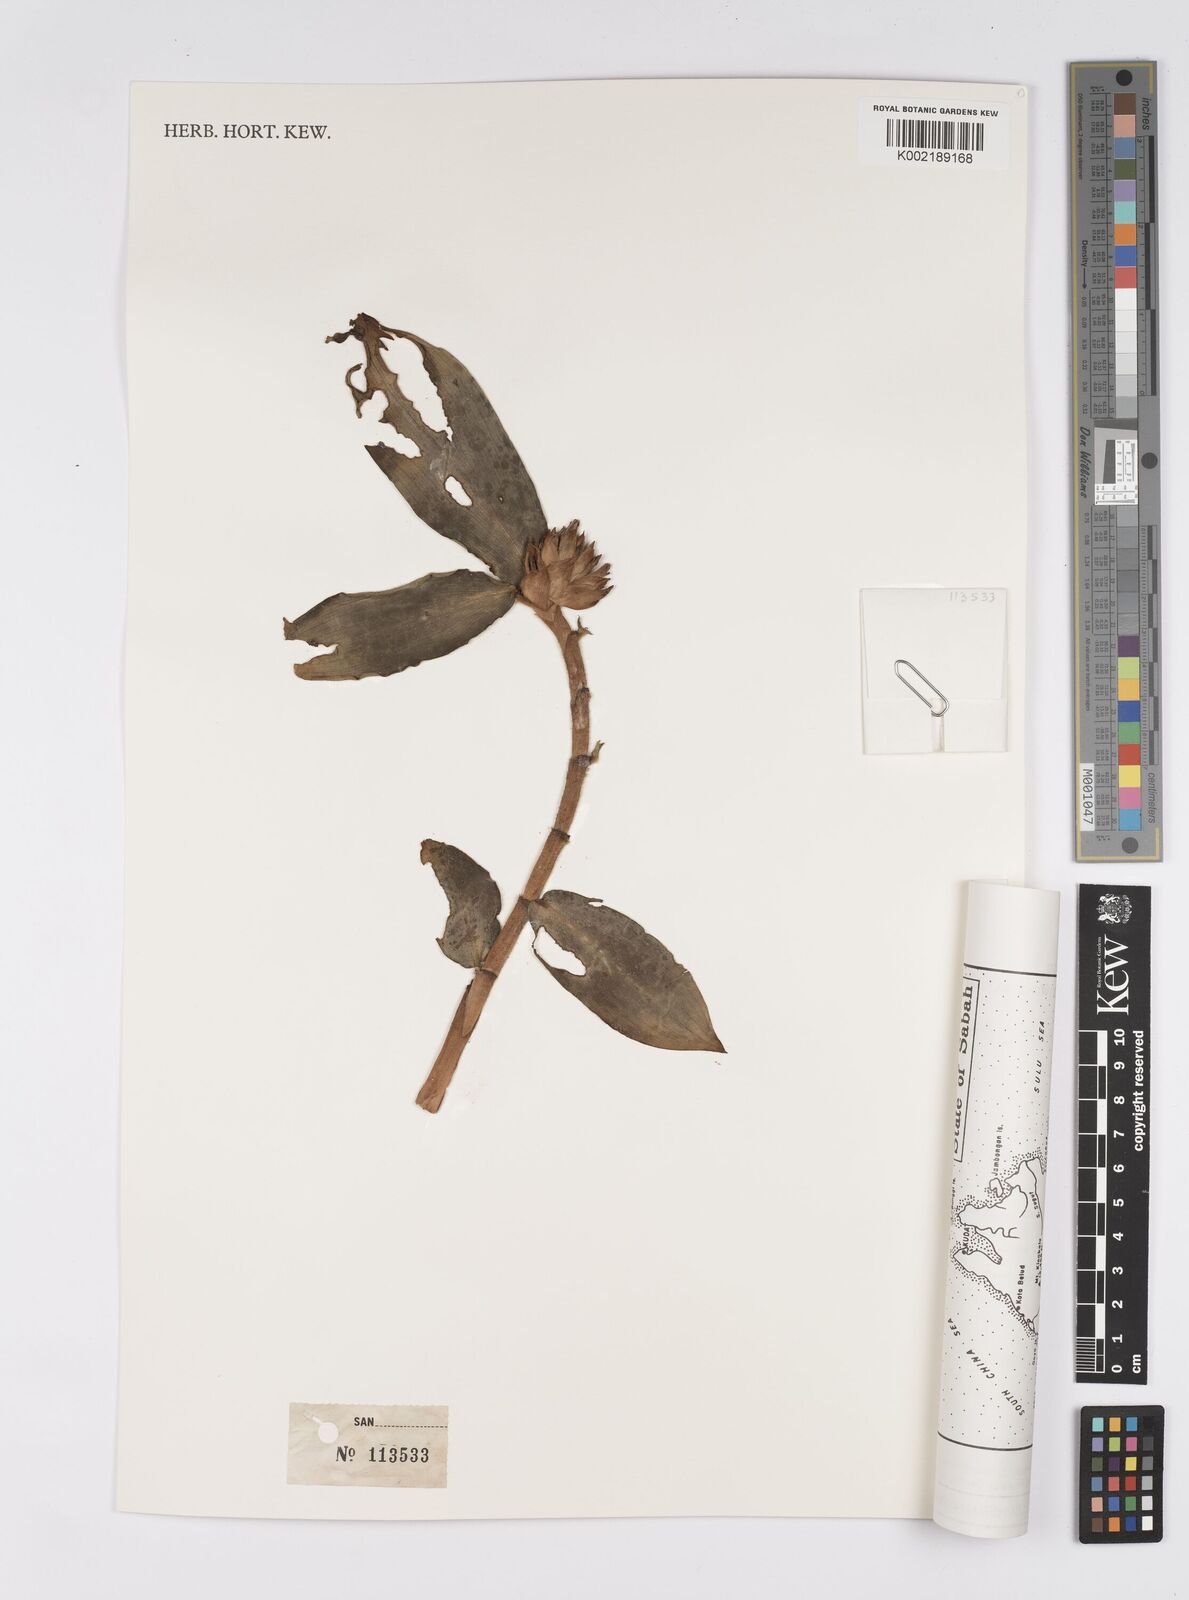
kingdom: Plantae
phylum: Tracheophyta
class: Liliopsida
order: Zingiberales
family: Costaceae
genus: Hellenia
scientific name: Hellenia speciosa
